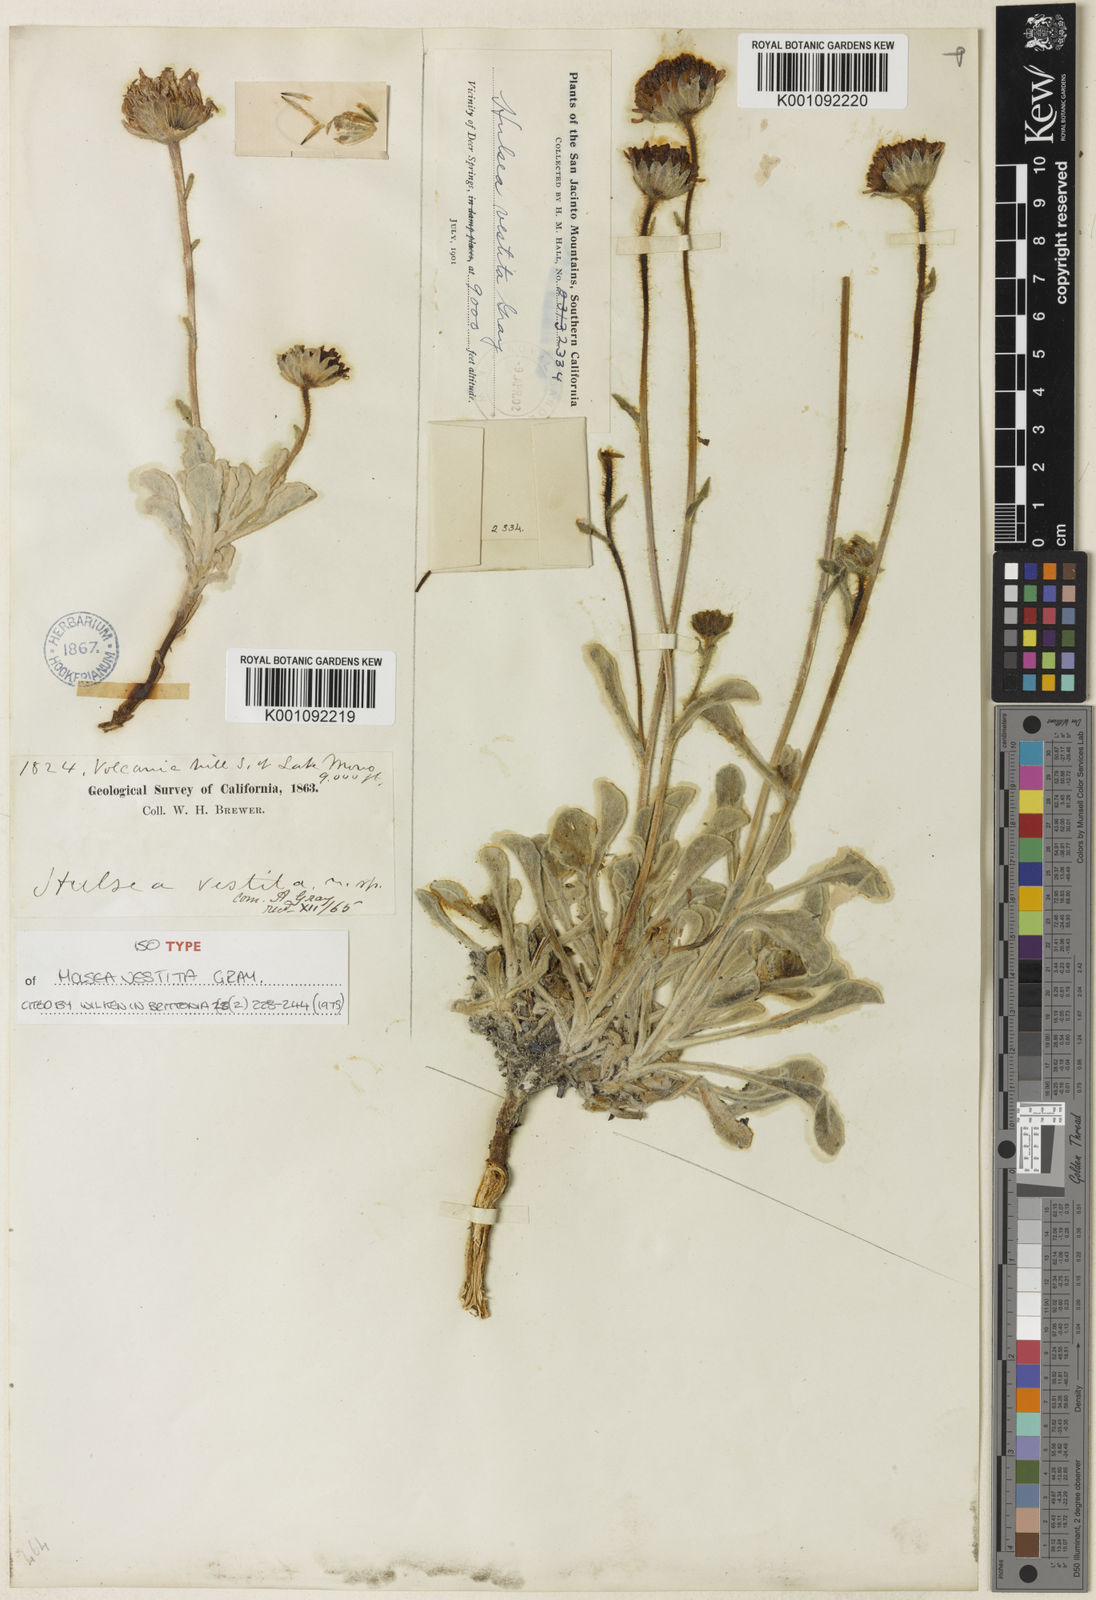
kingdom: Plantae
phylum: Tracheophyta
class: Magnoliopsida
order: Asterales
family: Asteraceae
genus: Hulsea
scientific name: Hulsea vestita
